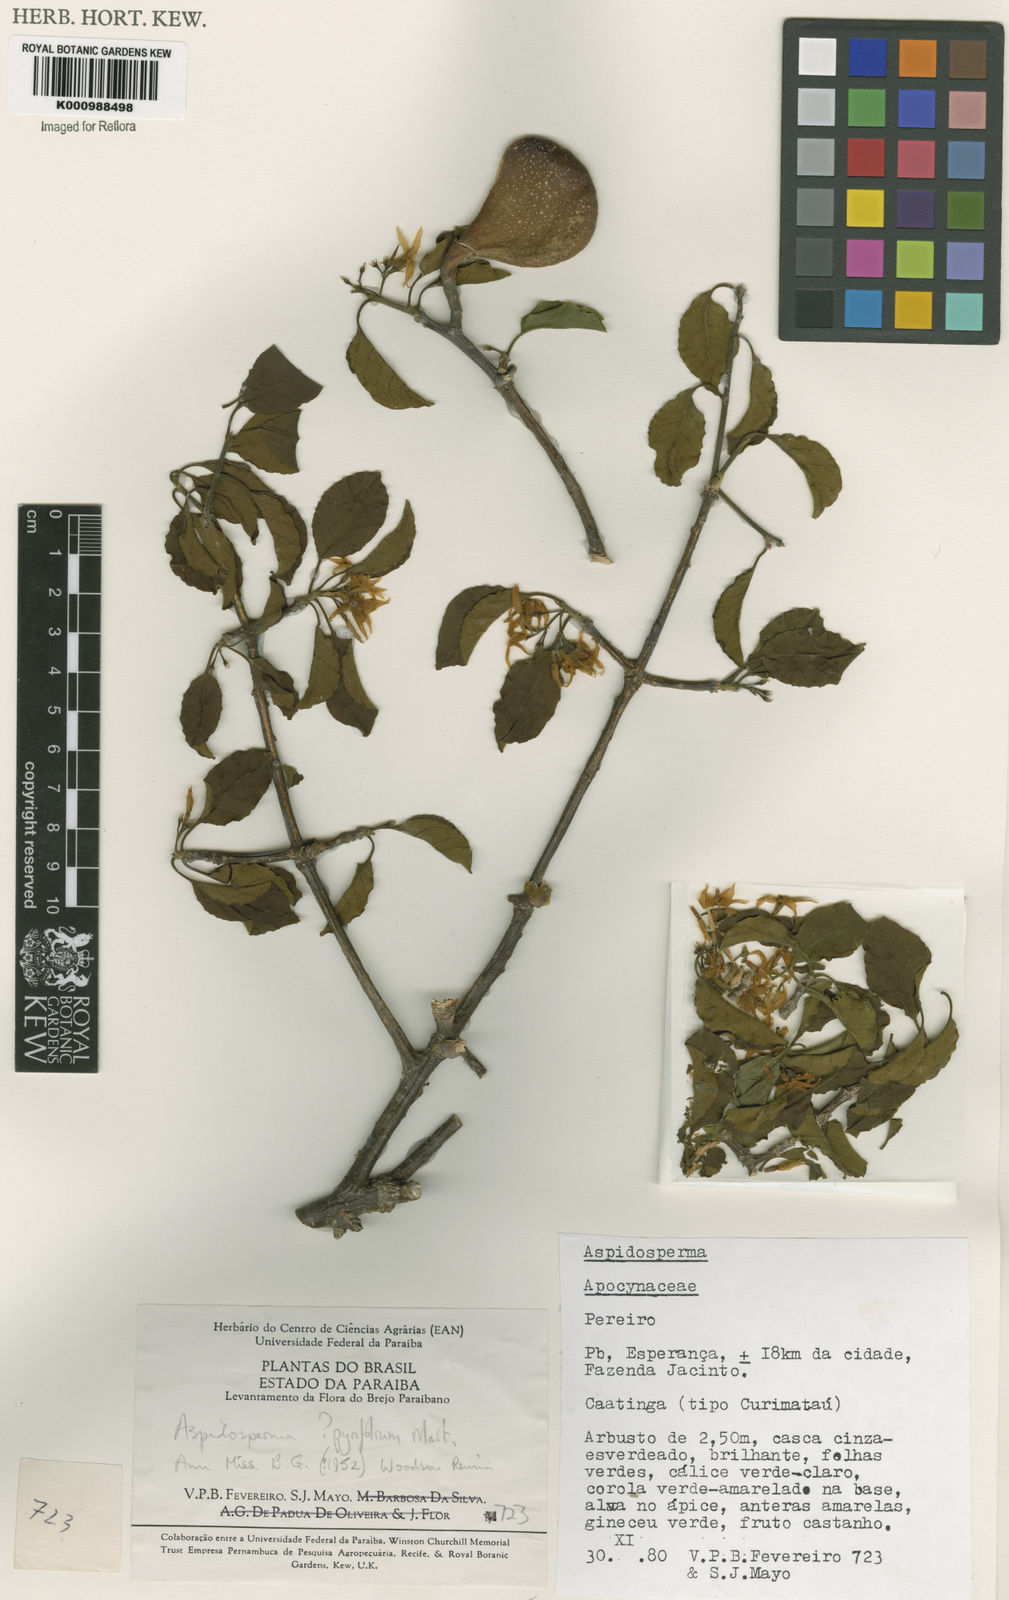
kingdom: Plantae
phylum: Tracheophyta
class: Magnoliopsida
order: Gentianales
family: Apocynaceae
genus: Aspidosperma
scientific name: Aspidosperma pyrifolium
